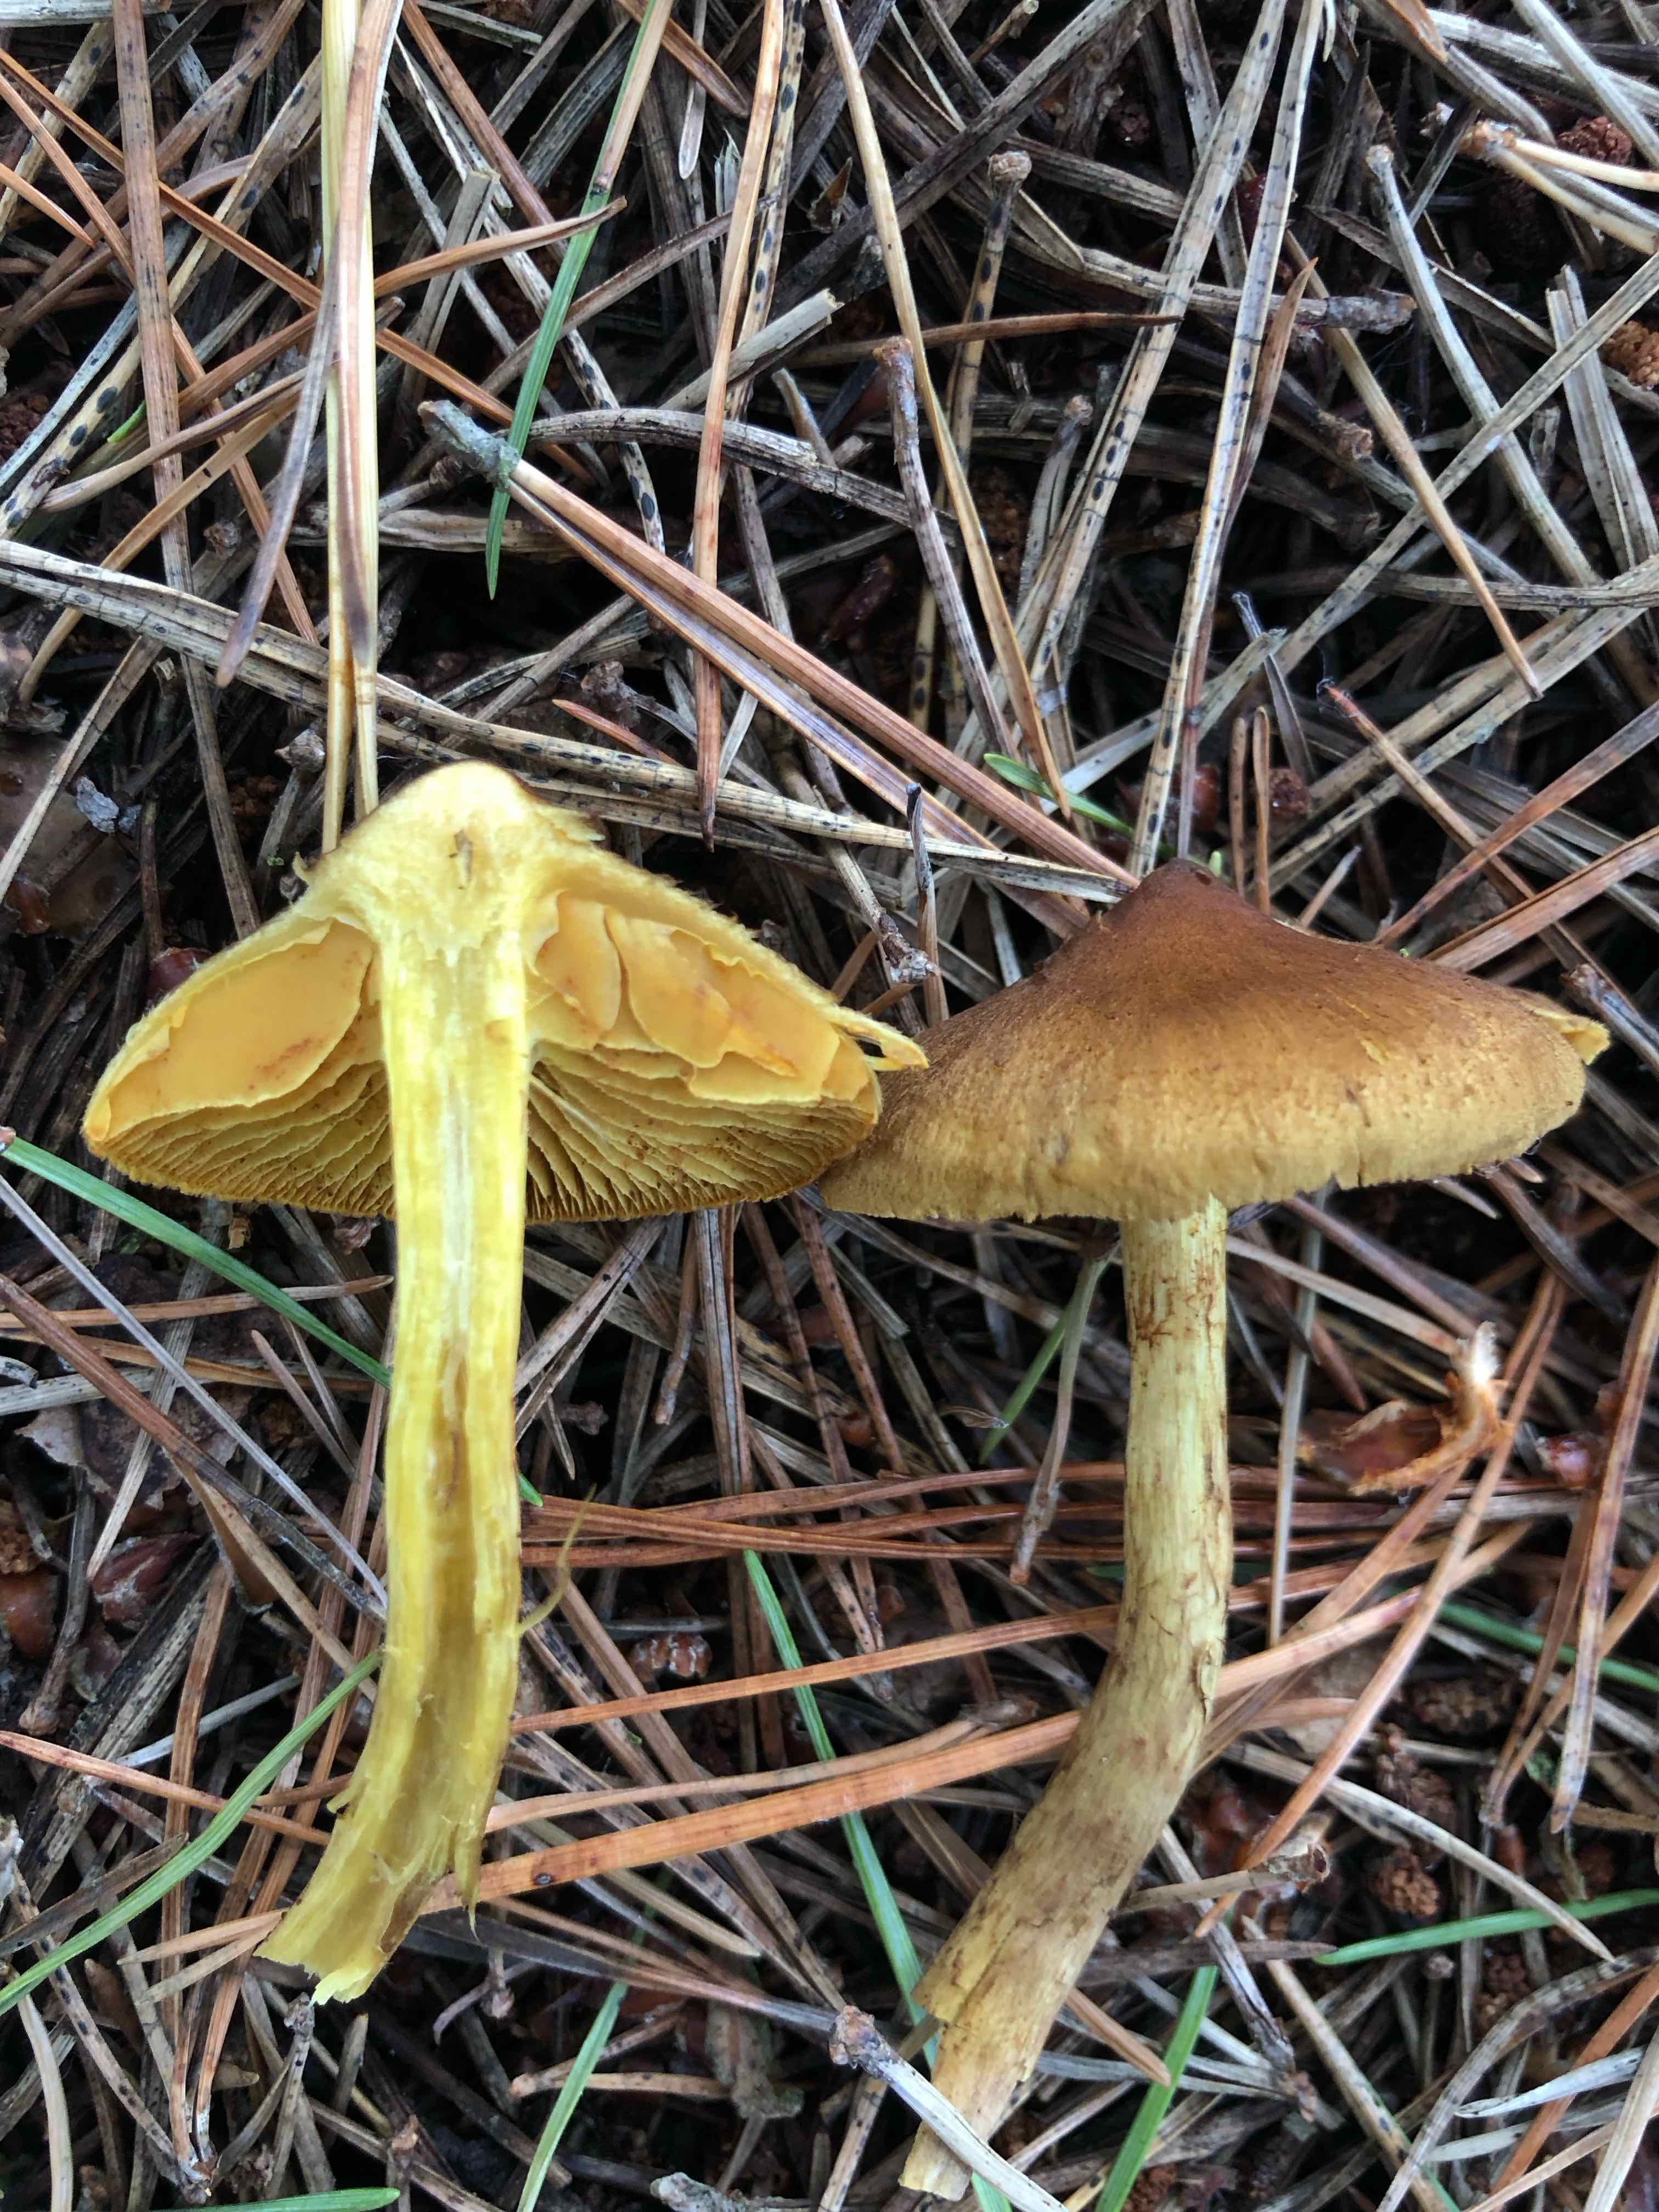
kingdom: Fungi
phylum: Basidiomycota
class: Agaricomycetes
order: Agaricales
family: Cortinariaceae
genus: Cortinarius
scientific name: Cortinarius
